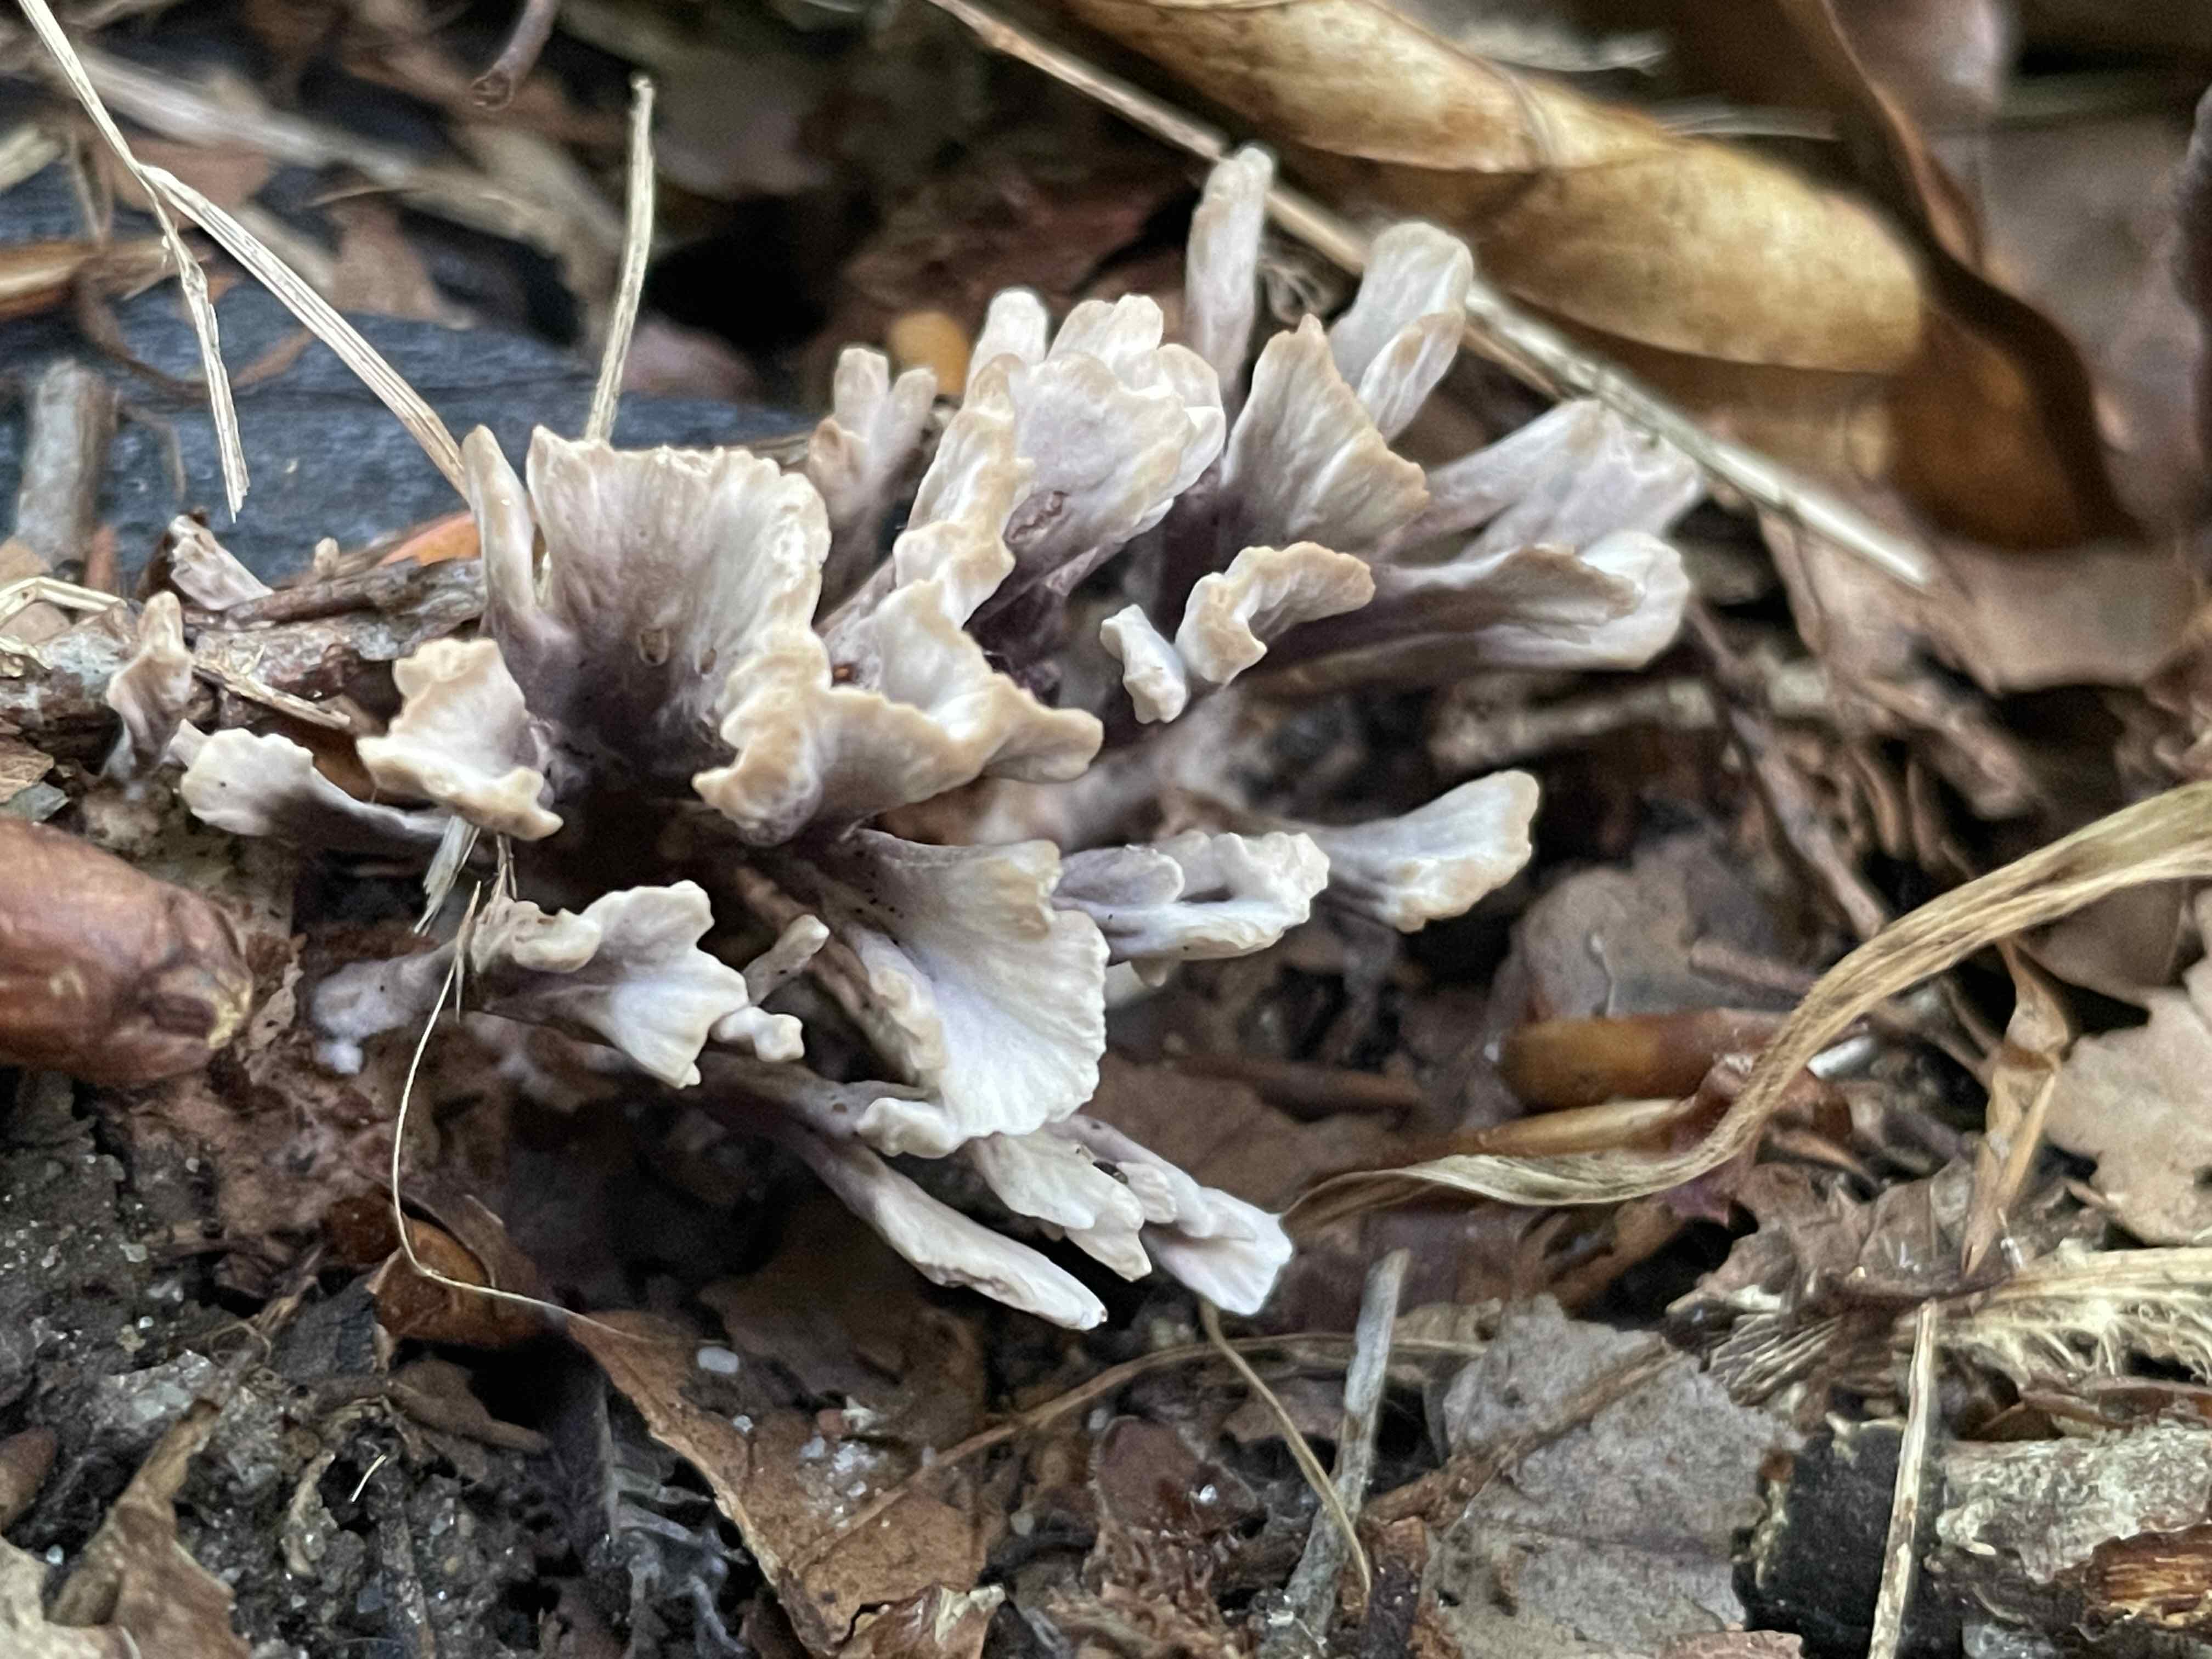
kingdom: Fungi
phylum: Basidiomycota
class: Agaricomycetes
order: Thelephorales
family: Thelephoraceae
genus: Thelephora
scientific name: Thelephora anthocephala
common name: busk-frynsesvamp
